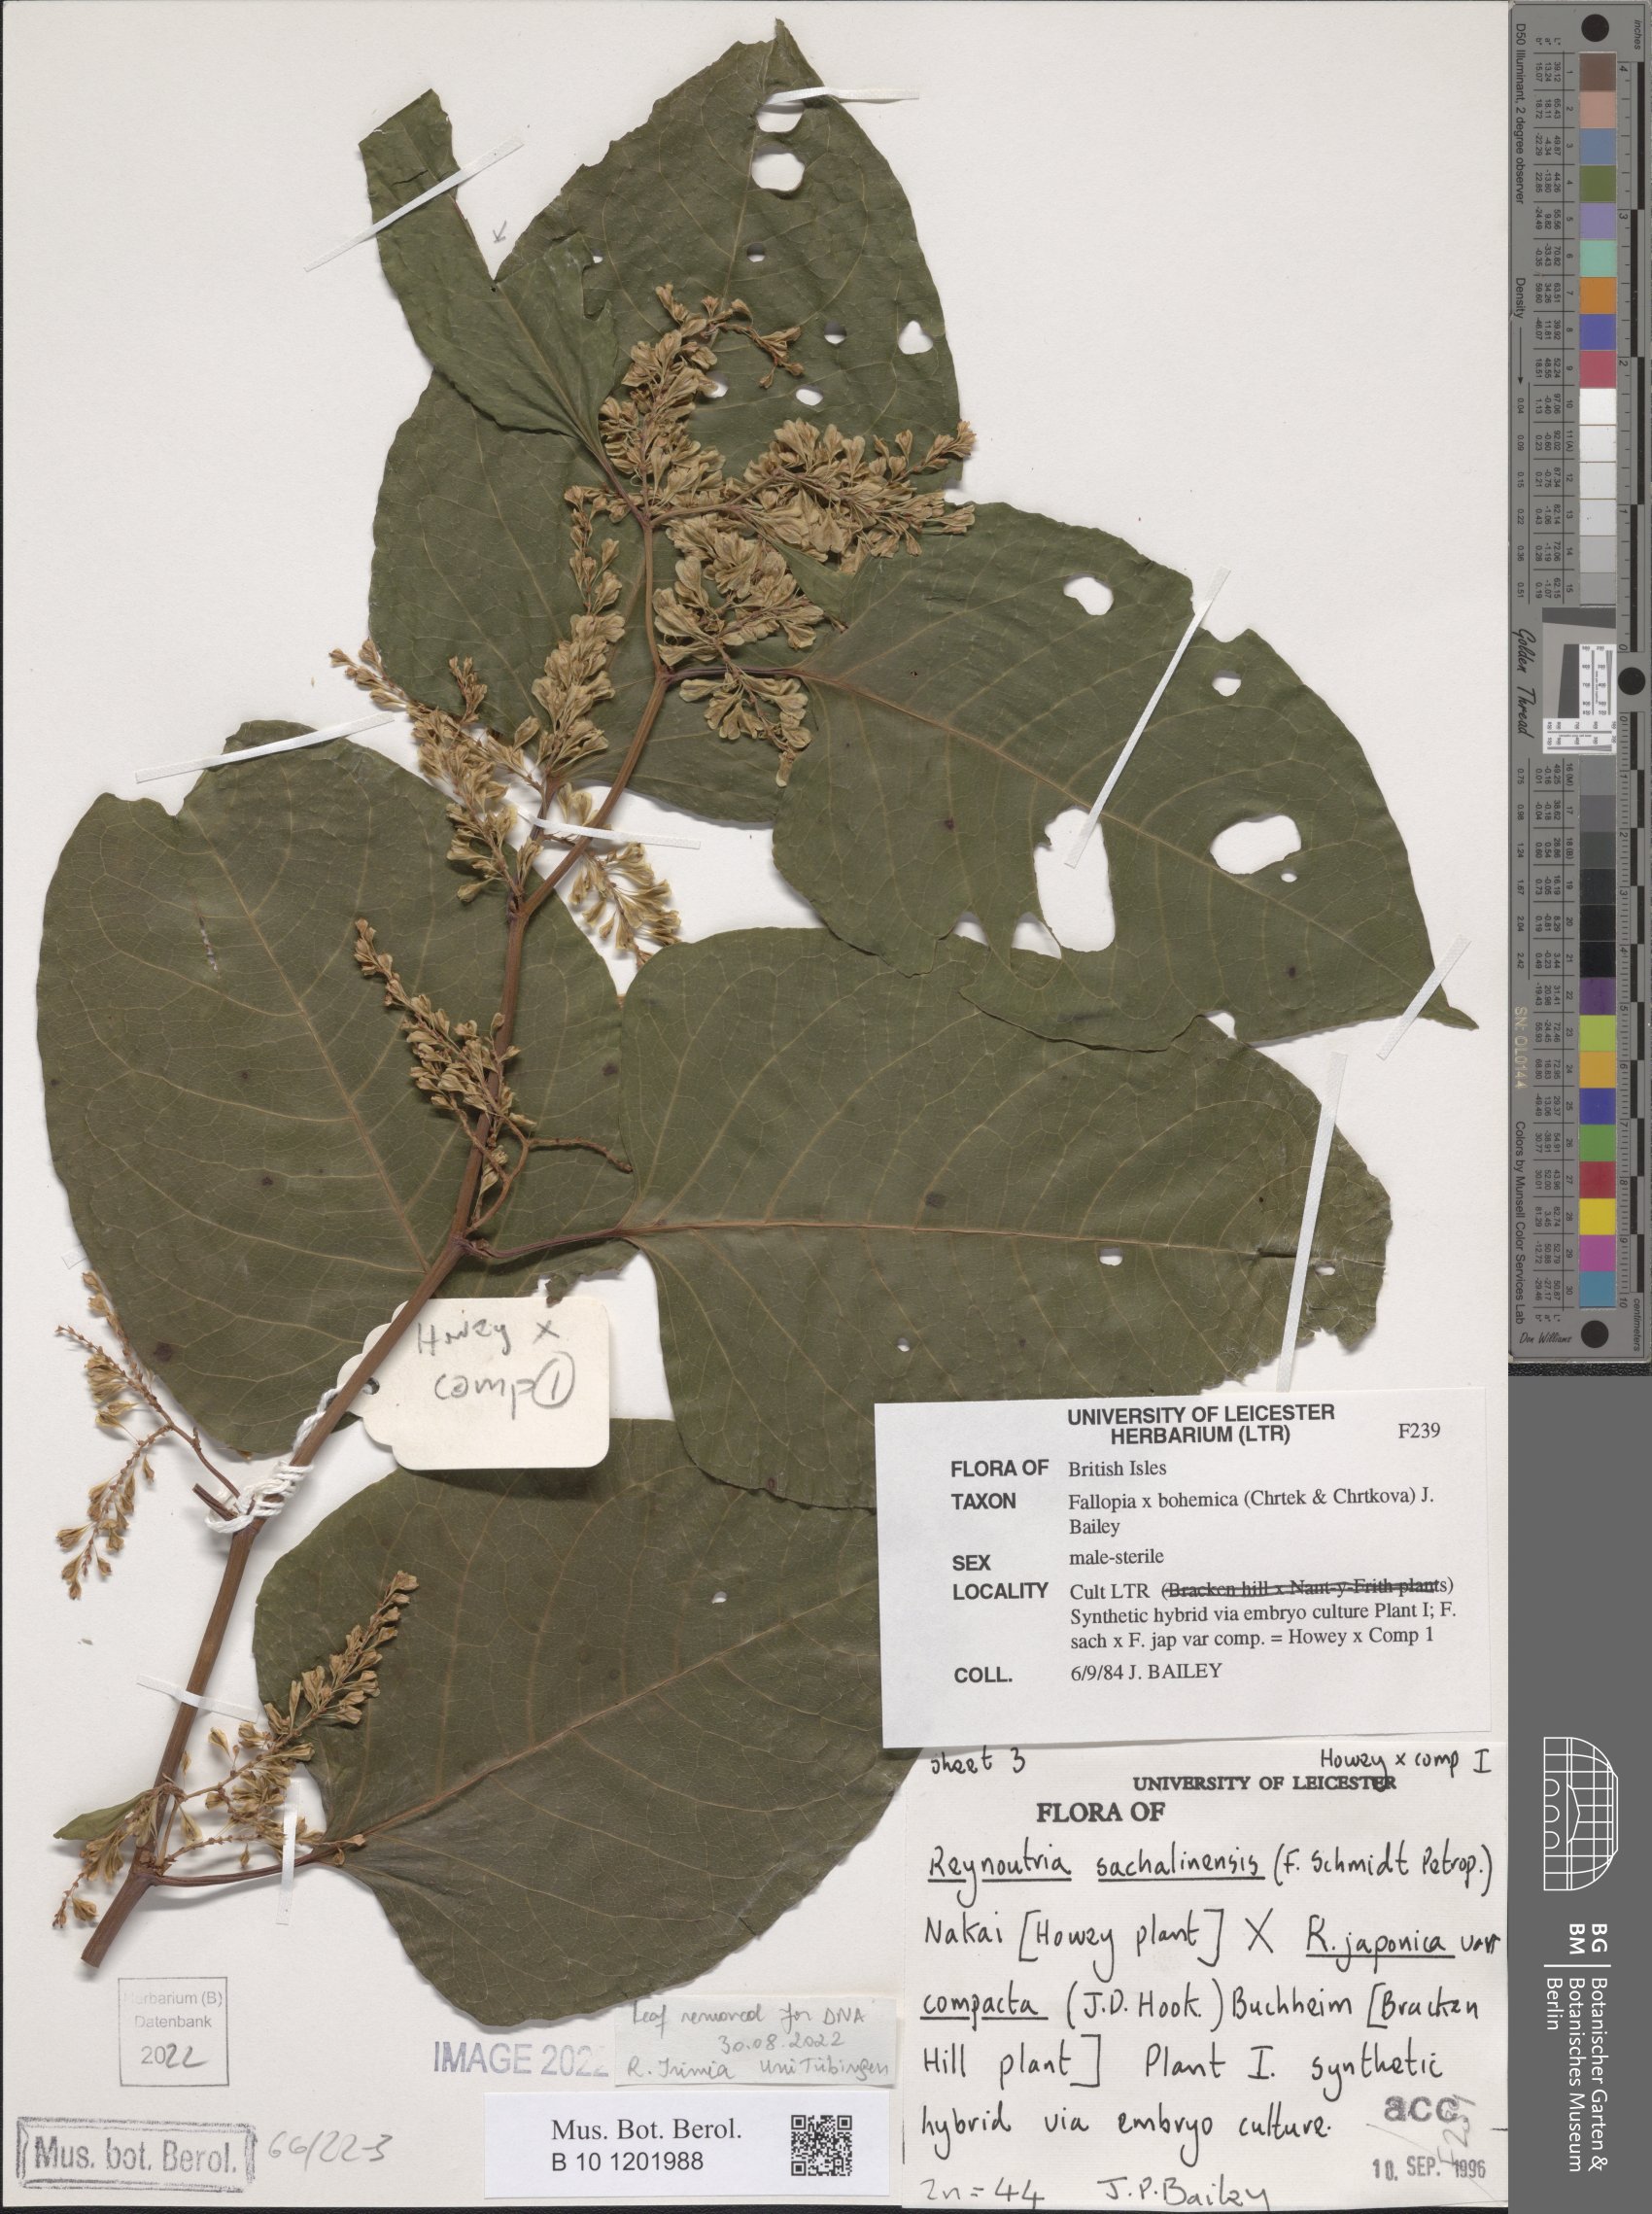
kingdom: Plantae
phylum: Tracheophyta
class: Magnoliopsida
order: Caryophyllales
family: Polygonaceae
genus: Reynoutria
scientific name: Reynoutria bohemica
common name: Bohemian knotweed
